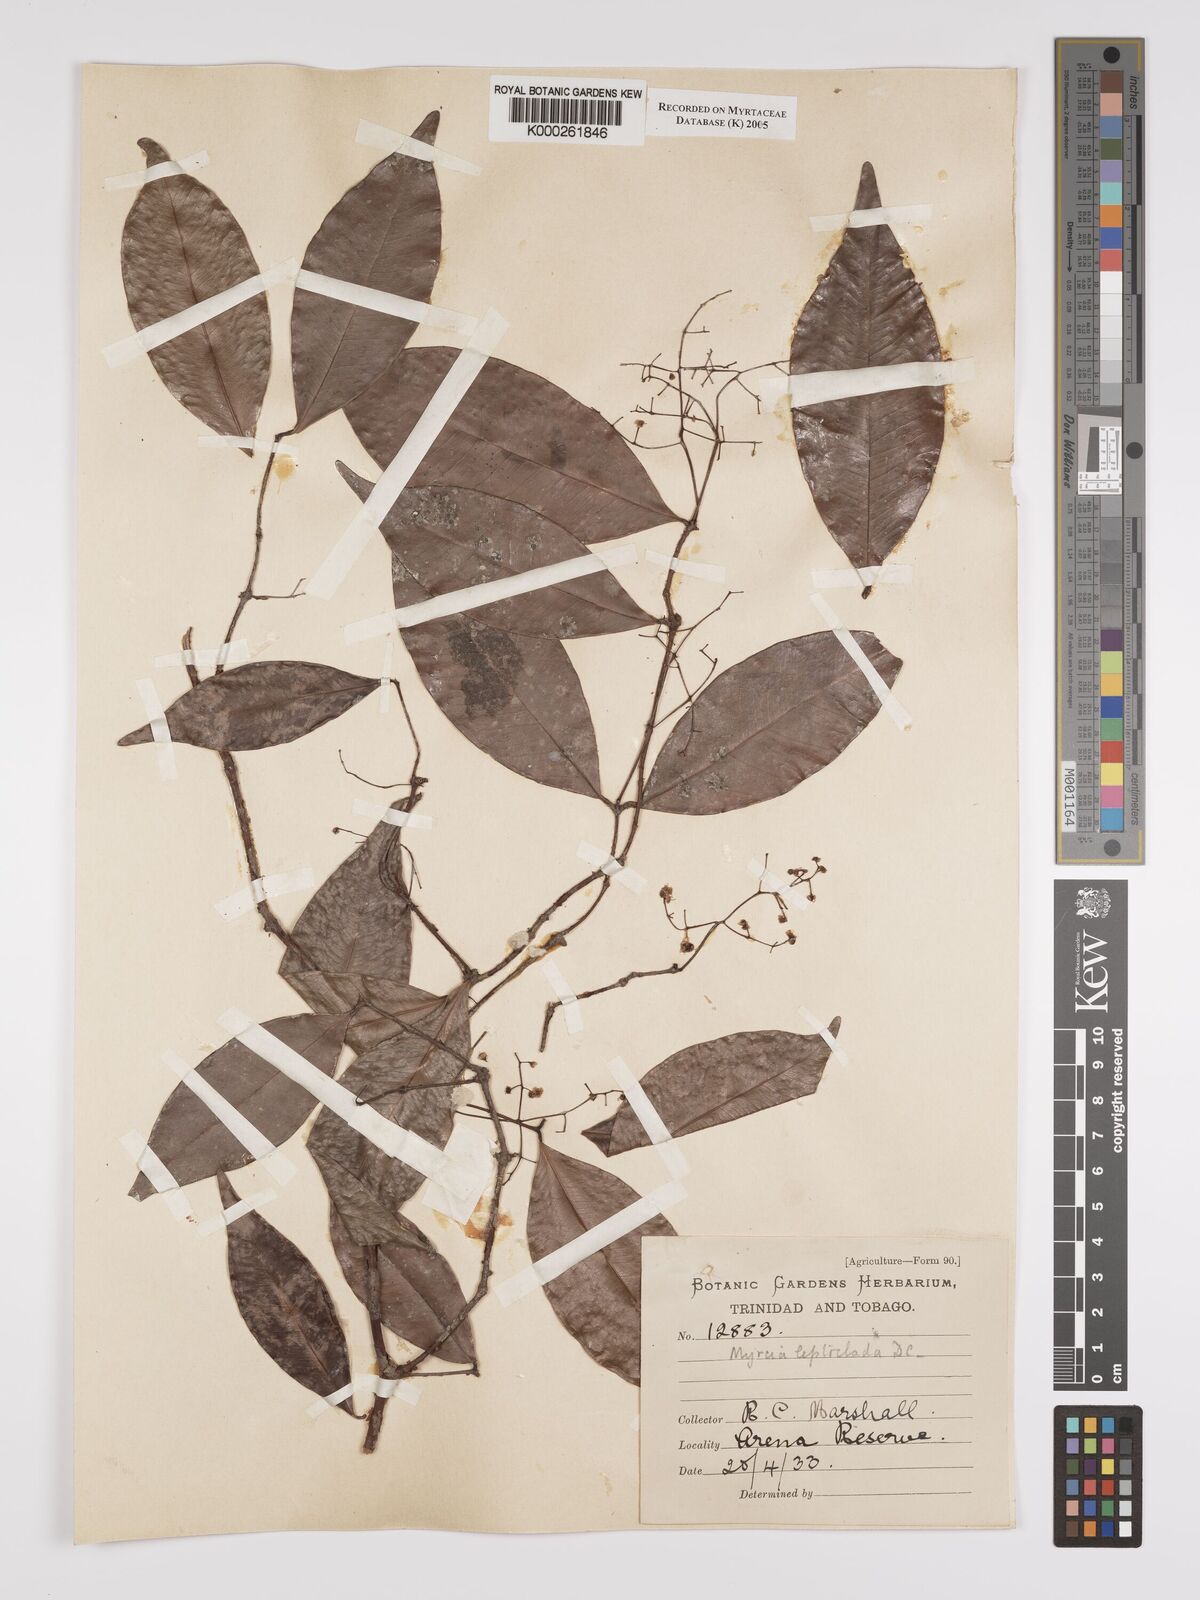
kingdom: Plantae
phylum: Tracheophyta
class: Magnoliopsida
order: Myrtales
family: Myrtaceae
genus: Myrcia
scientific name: Myrcia amazonica
